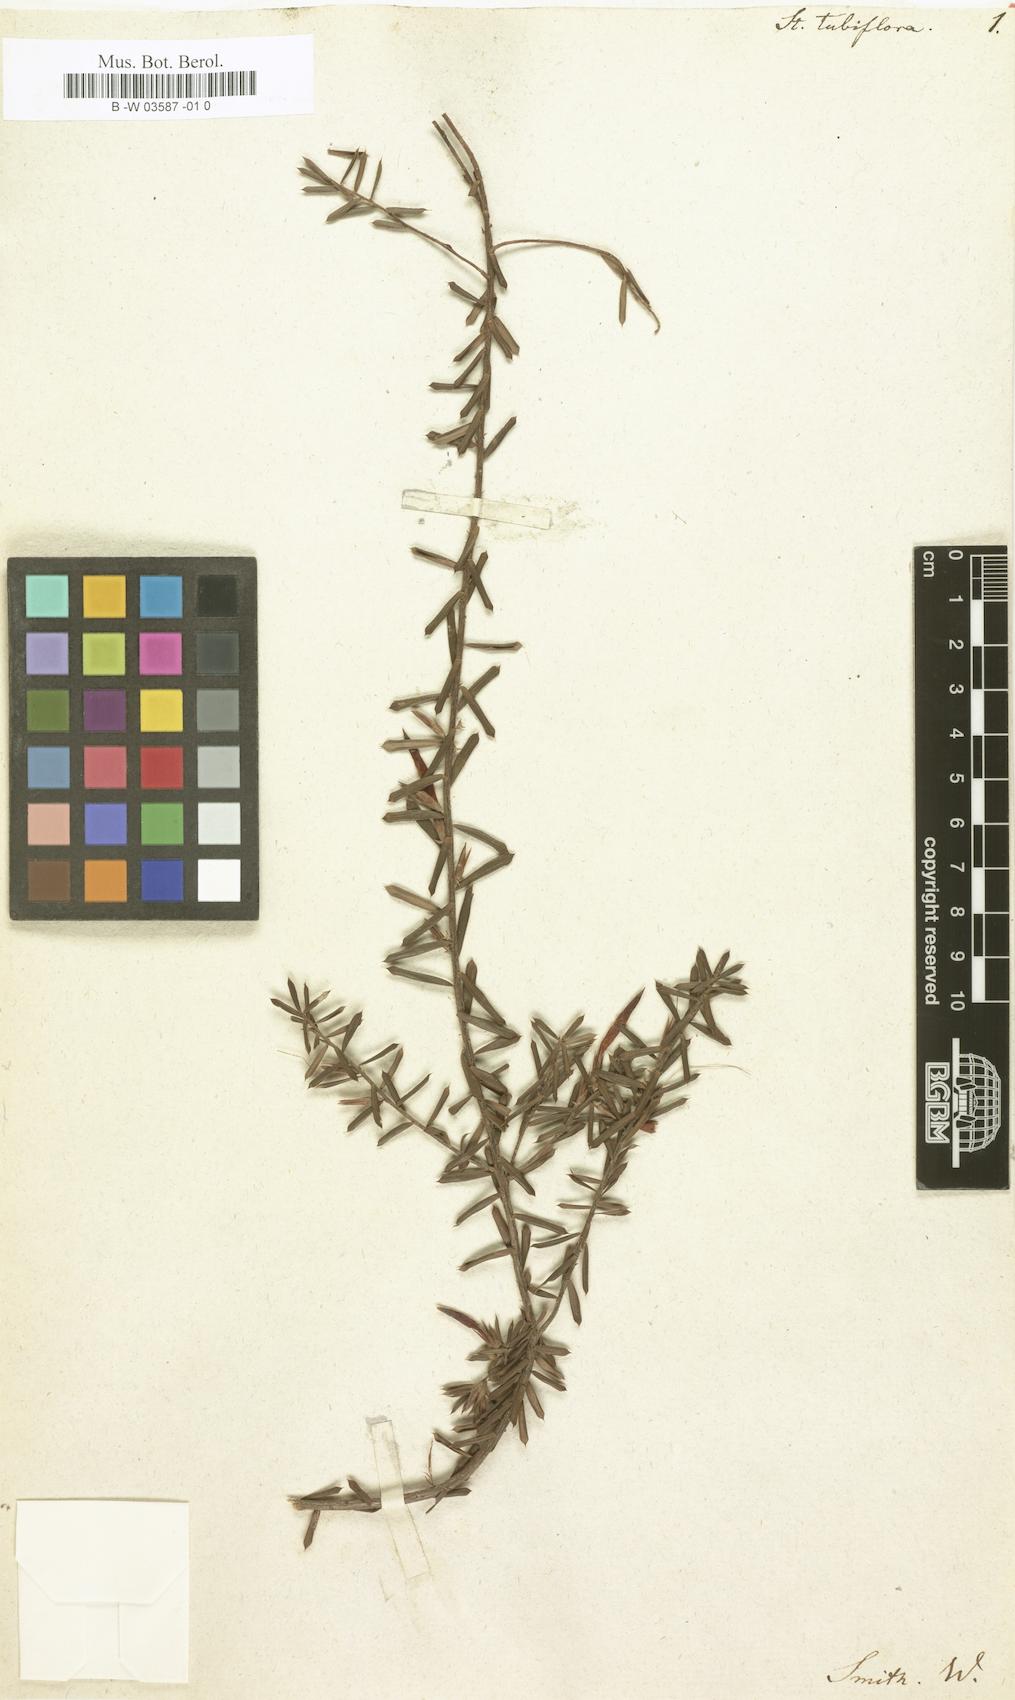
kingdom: Plantae
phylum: Tracheophyta
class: Magnoliopsida
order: Ericales
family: Ericaceae
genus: Styphelia
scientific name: Styphelia tubiflora
